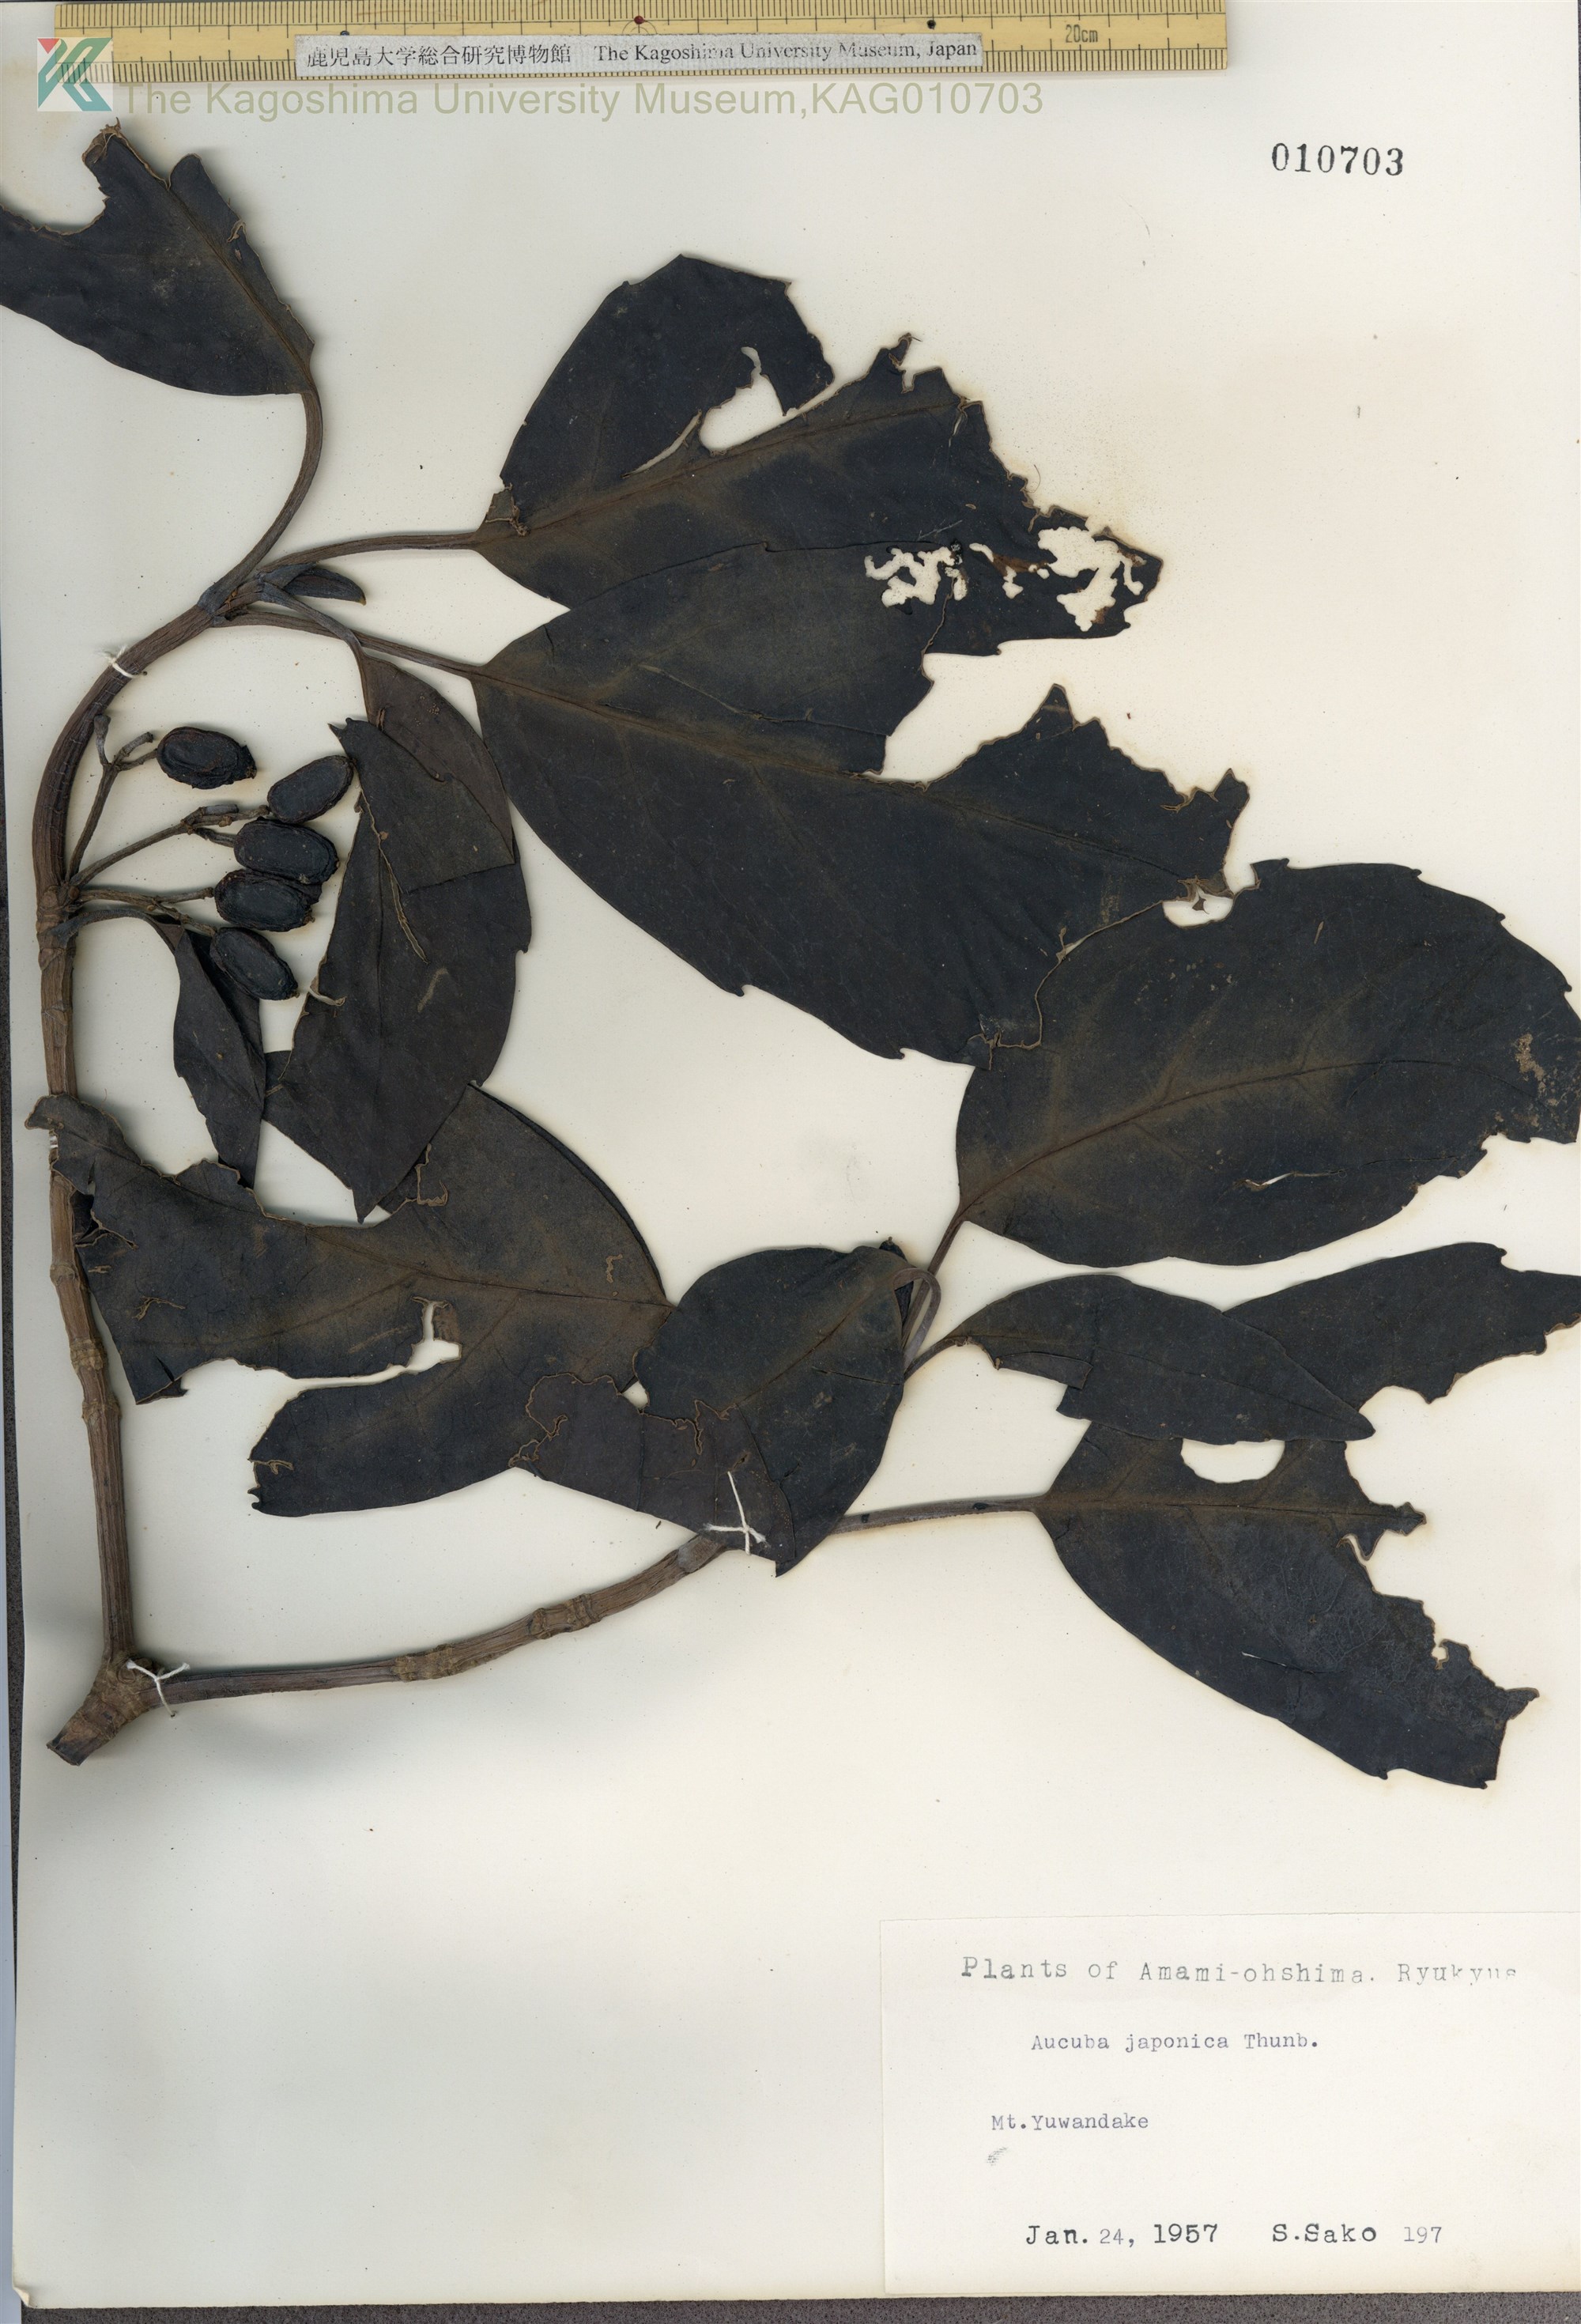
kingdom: Plantae
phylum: Tracheophyta
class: Magnoliopsida
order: Garryales
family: Garryaceae
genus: Aucuba
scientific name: Aucuba japonica
